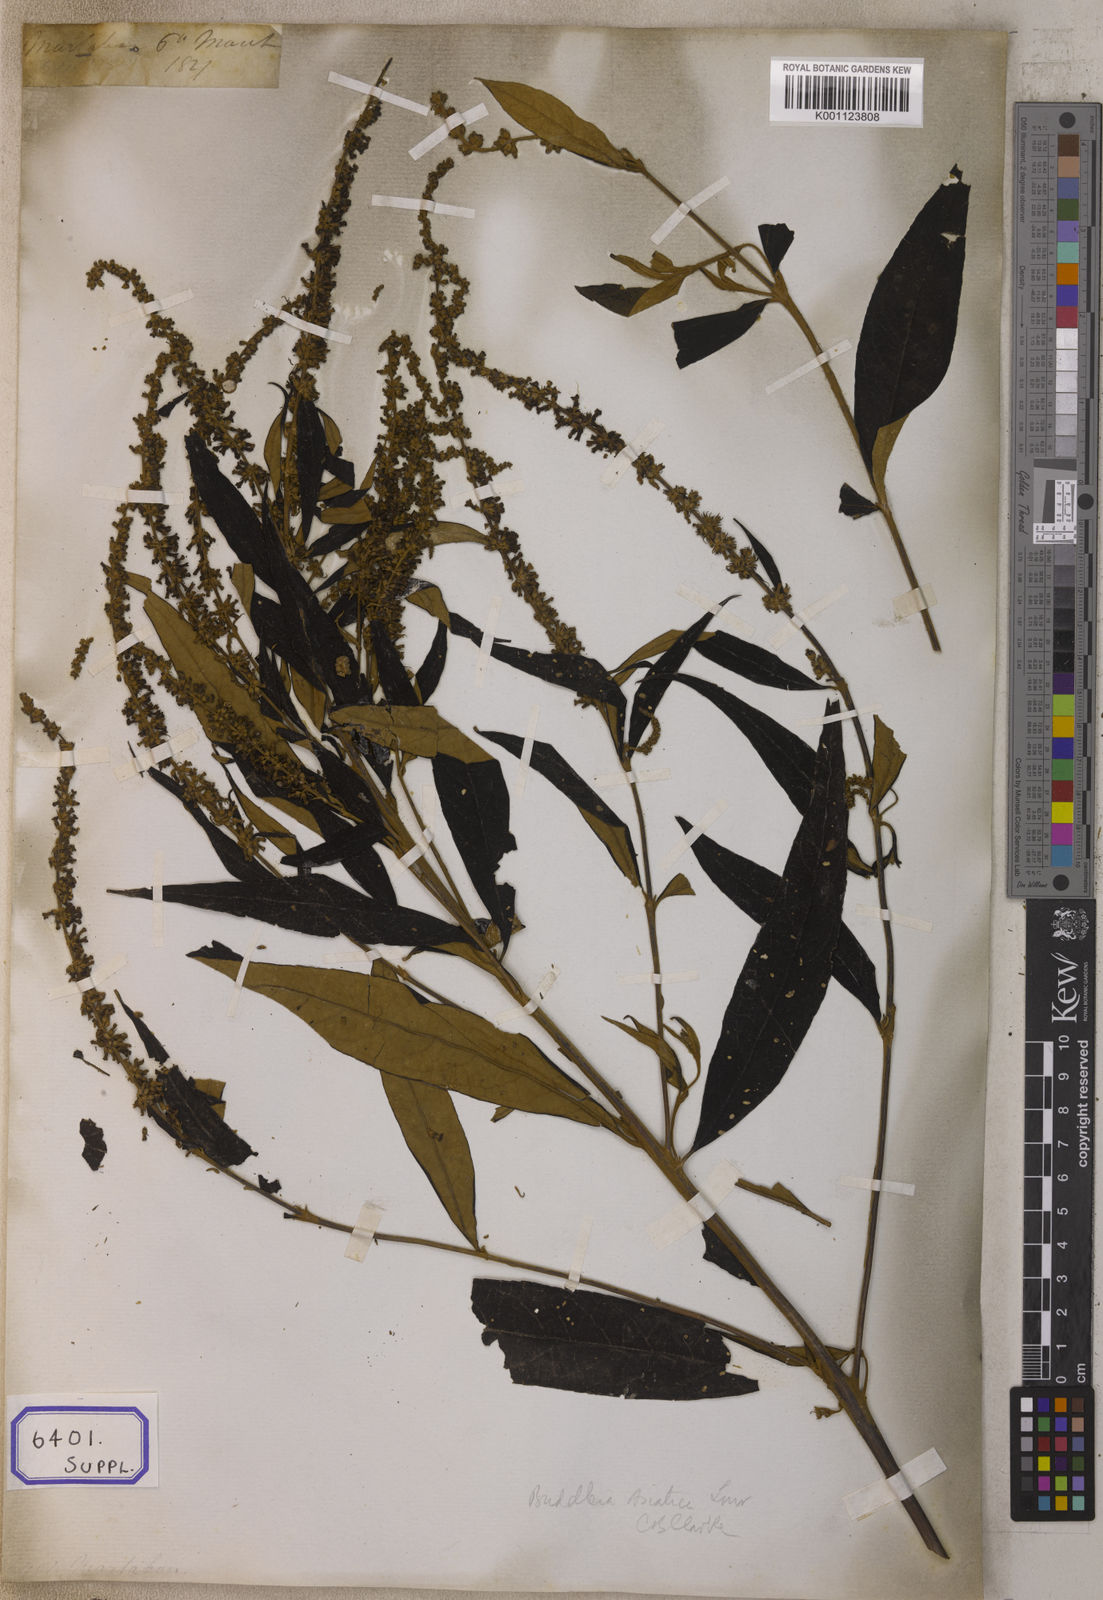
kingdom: Plantae
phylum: Tracheophyta
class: Magnoliopsida
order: Lamiales
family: Scrophulariaceae
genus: Buddleja
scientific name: Buddleja
